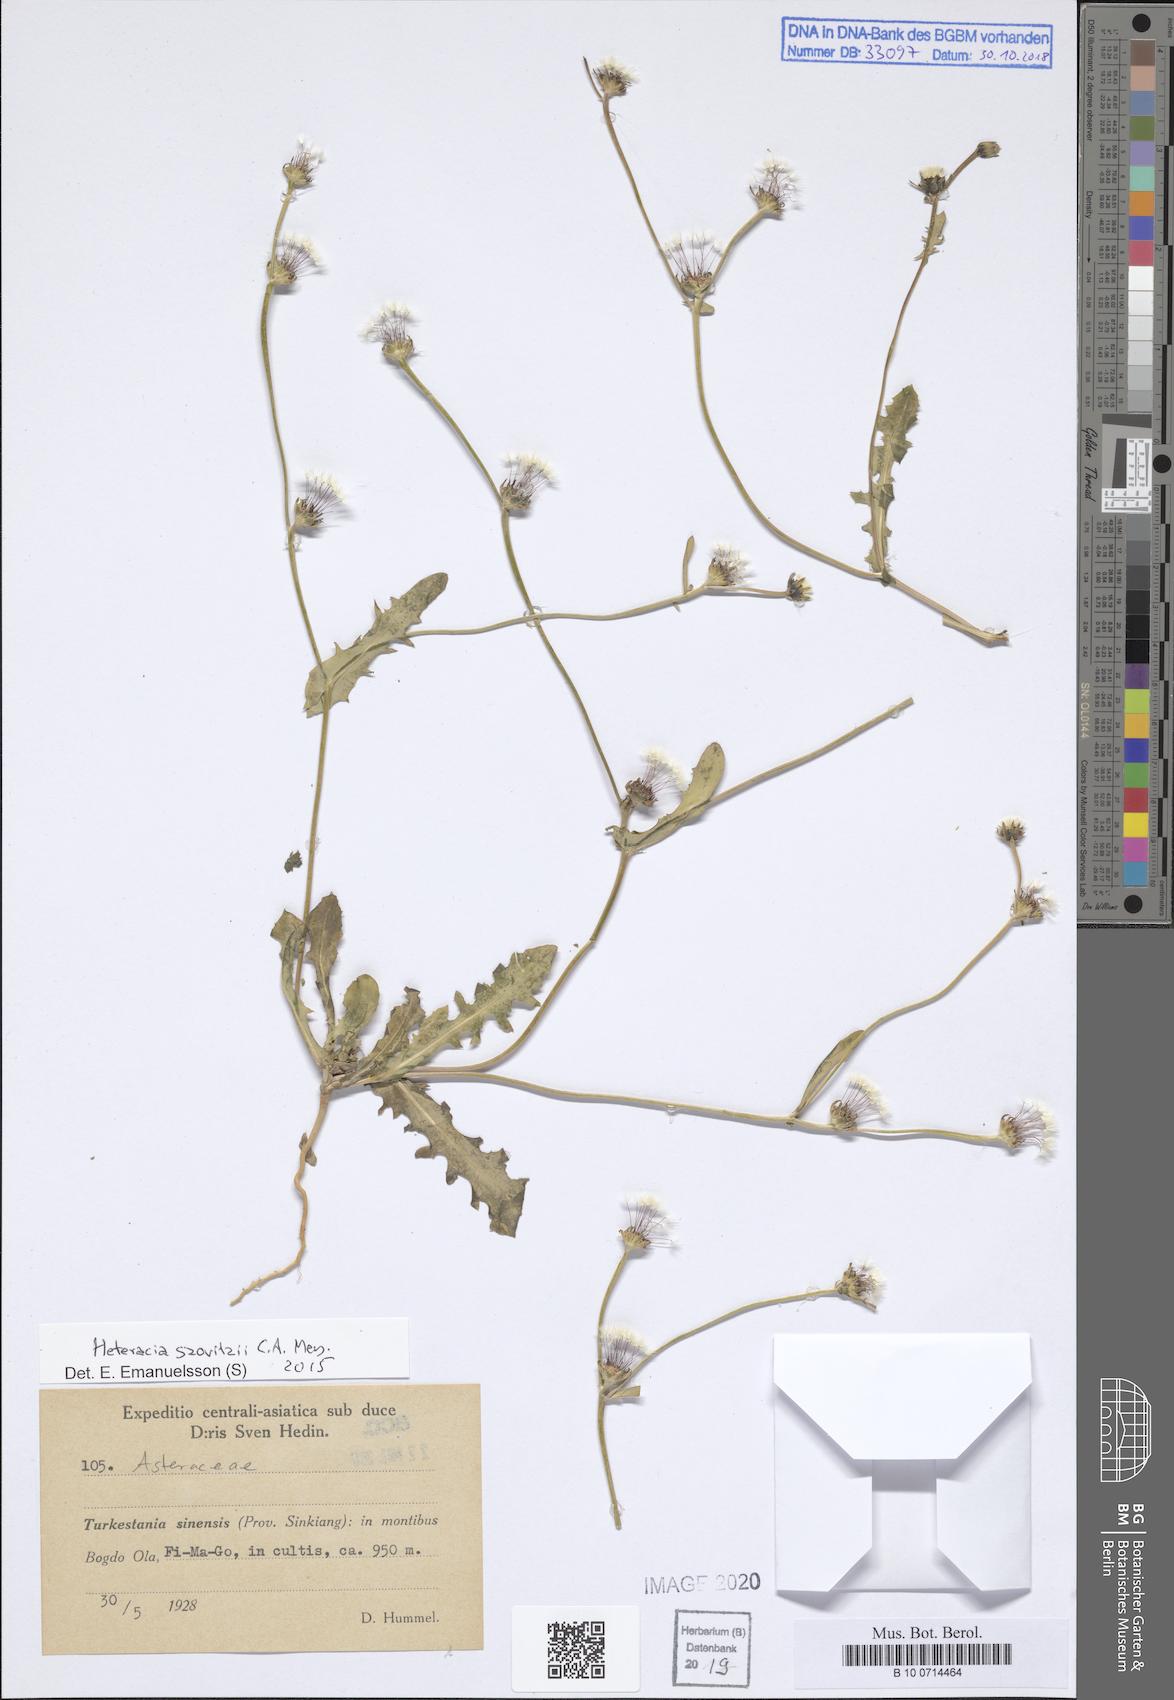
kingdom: Plantae
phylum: Tracheophyta
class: Magnoliopsida
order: Asterales
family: Asteraceae
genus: Heteracia
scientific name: Heteracia szovitsii
